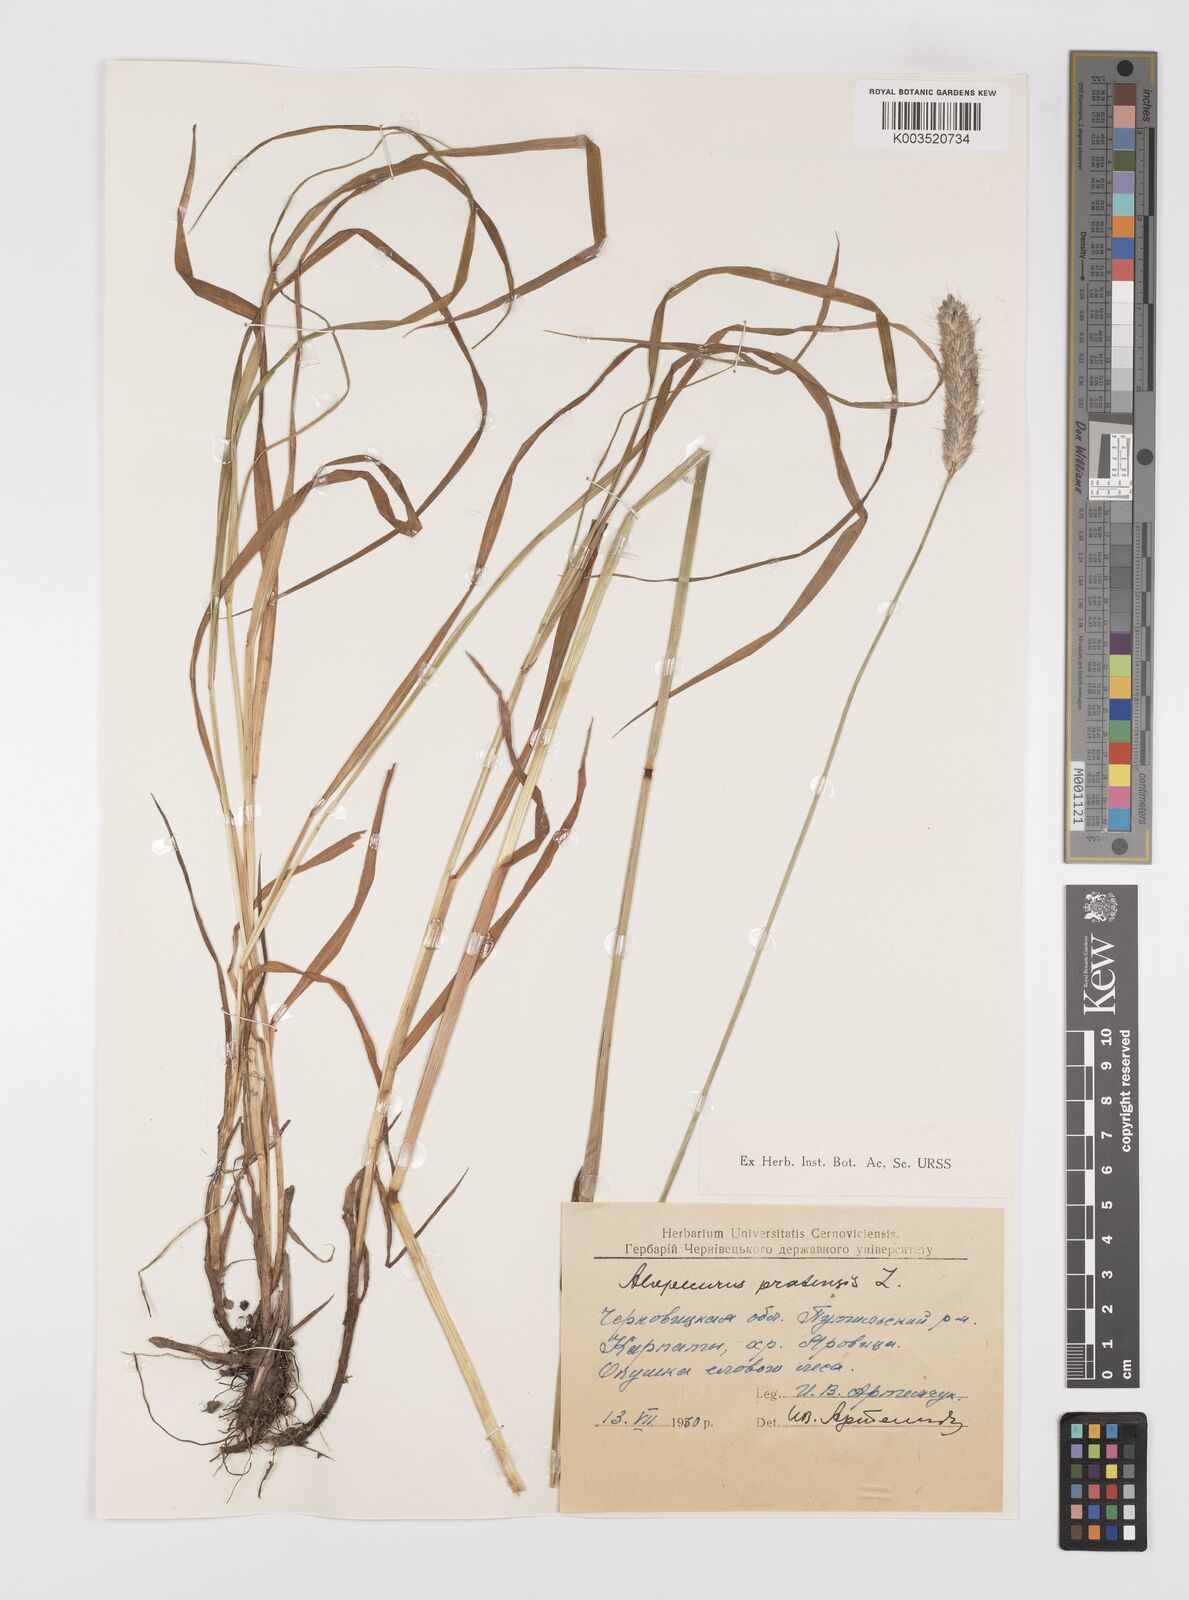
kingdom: Plantae
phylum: Tracheophyta
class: Liliopsida
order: Poales
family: Poaceae
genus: Alopecurus
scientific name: Alopecurus pratensis
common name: Meadow foxtail
